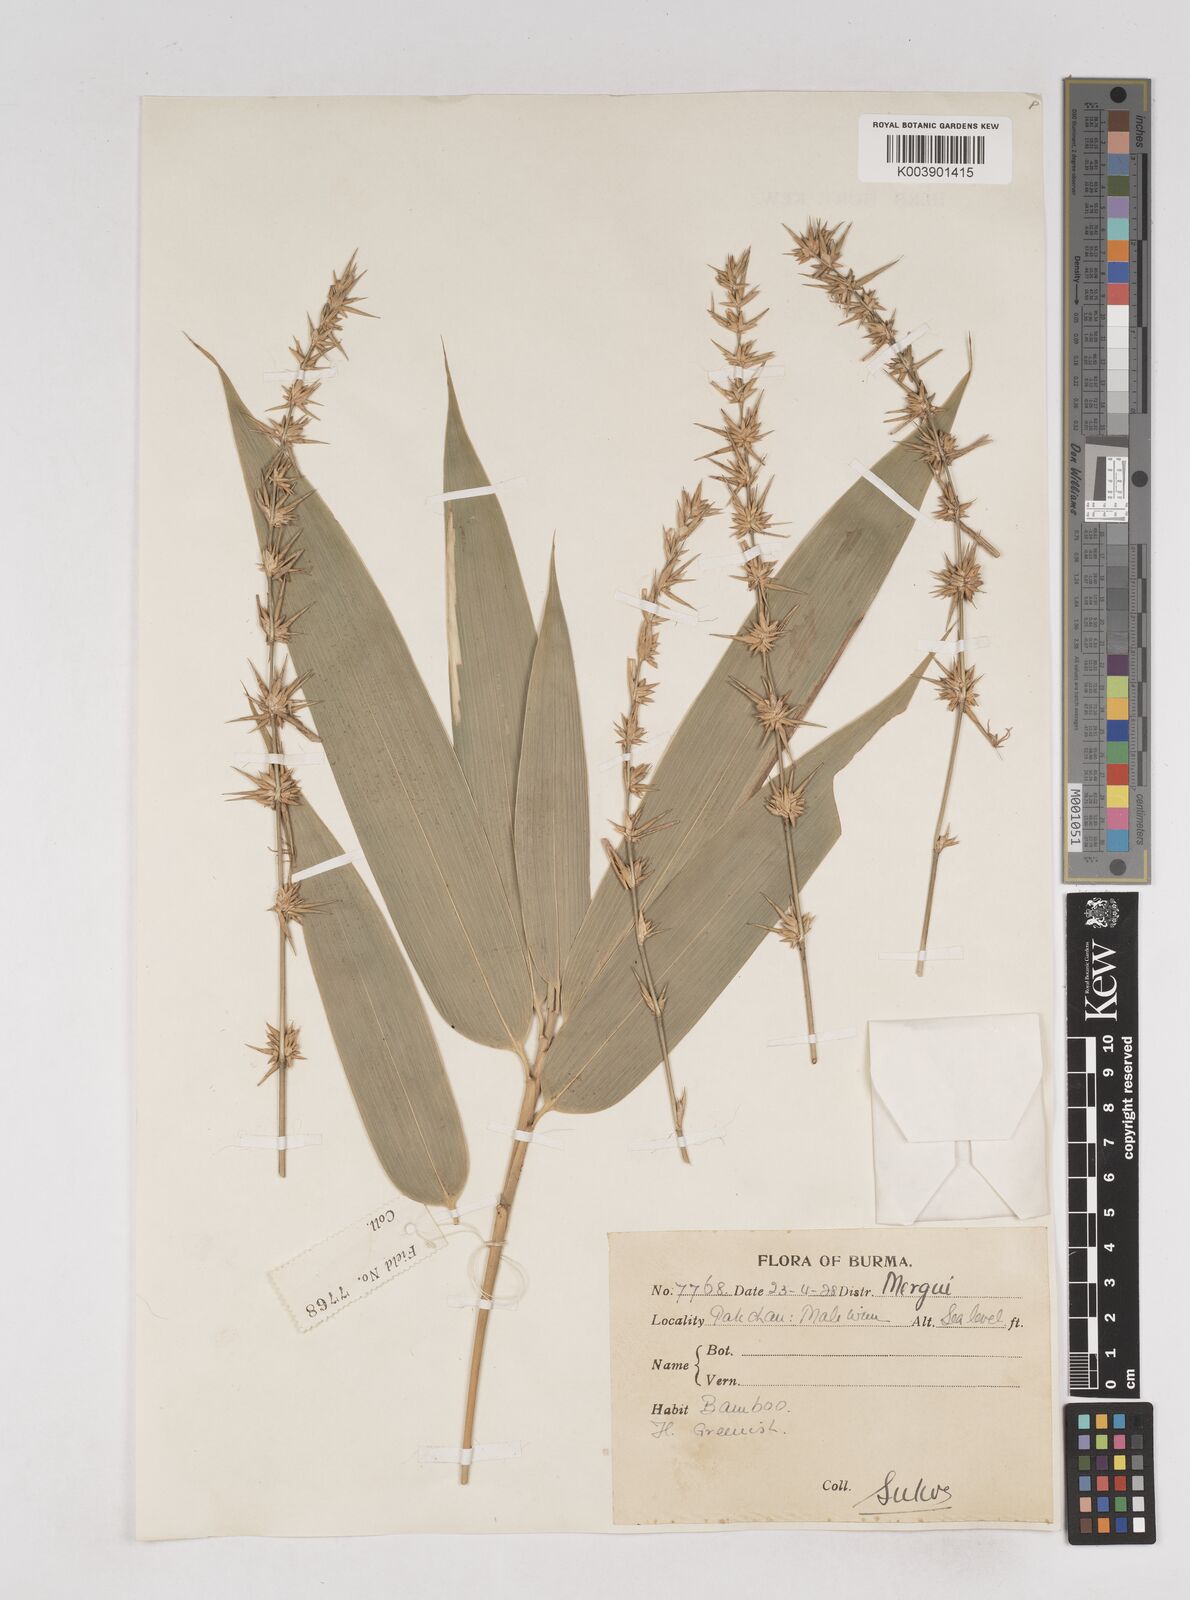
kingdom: Plantae
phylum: Tracheophyta
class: Liliopsida
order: Poales
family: Poaceae
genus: Schizostachyum
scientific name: Schizostachyum
